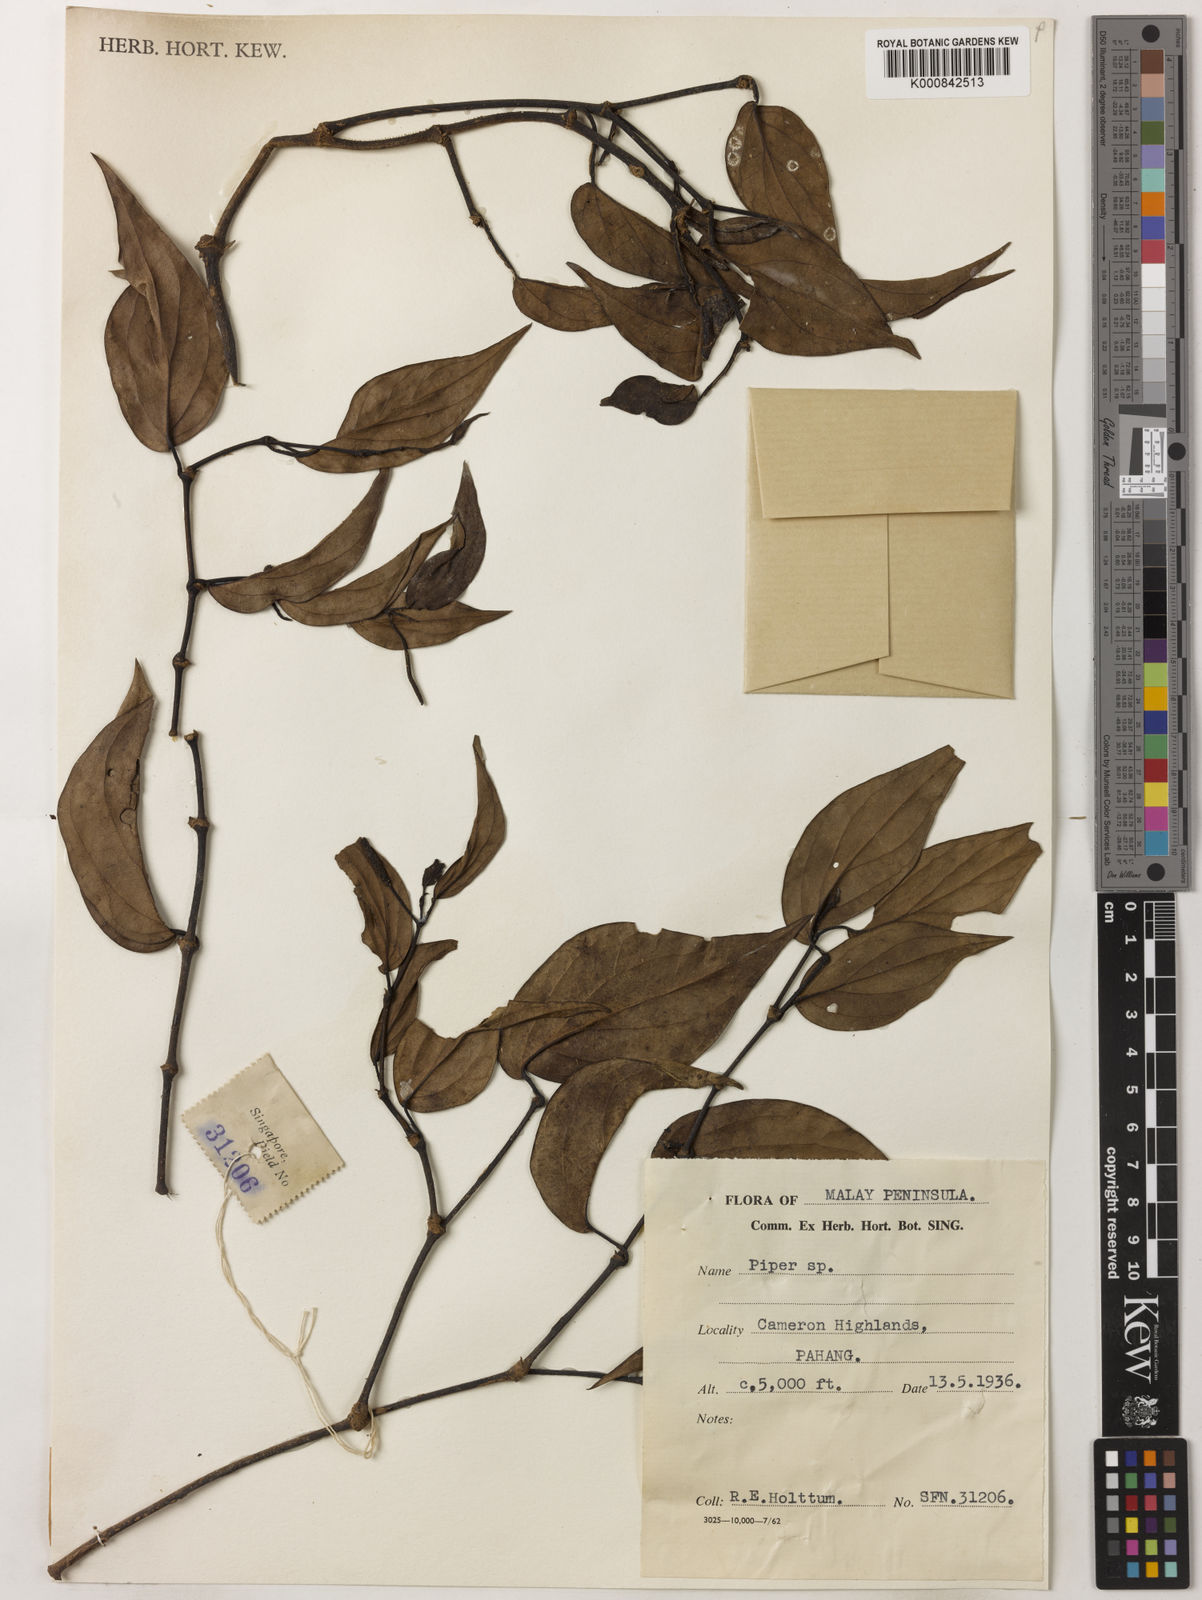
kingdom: Plantae
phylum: Tracheophyta
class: Magnoliopsida
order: Piperales
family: Piperaceae
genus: Piper
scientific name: Piper
